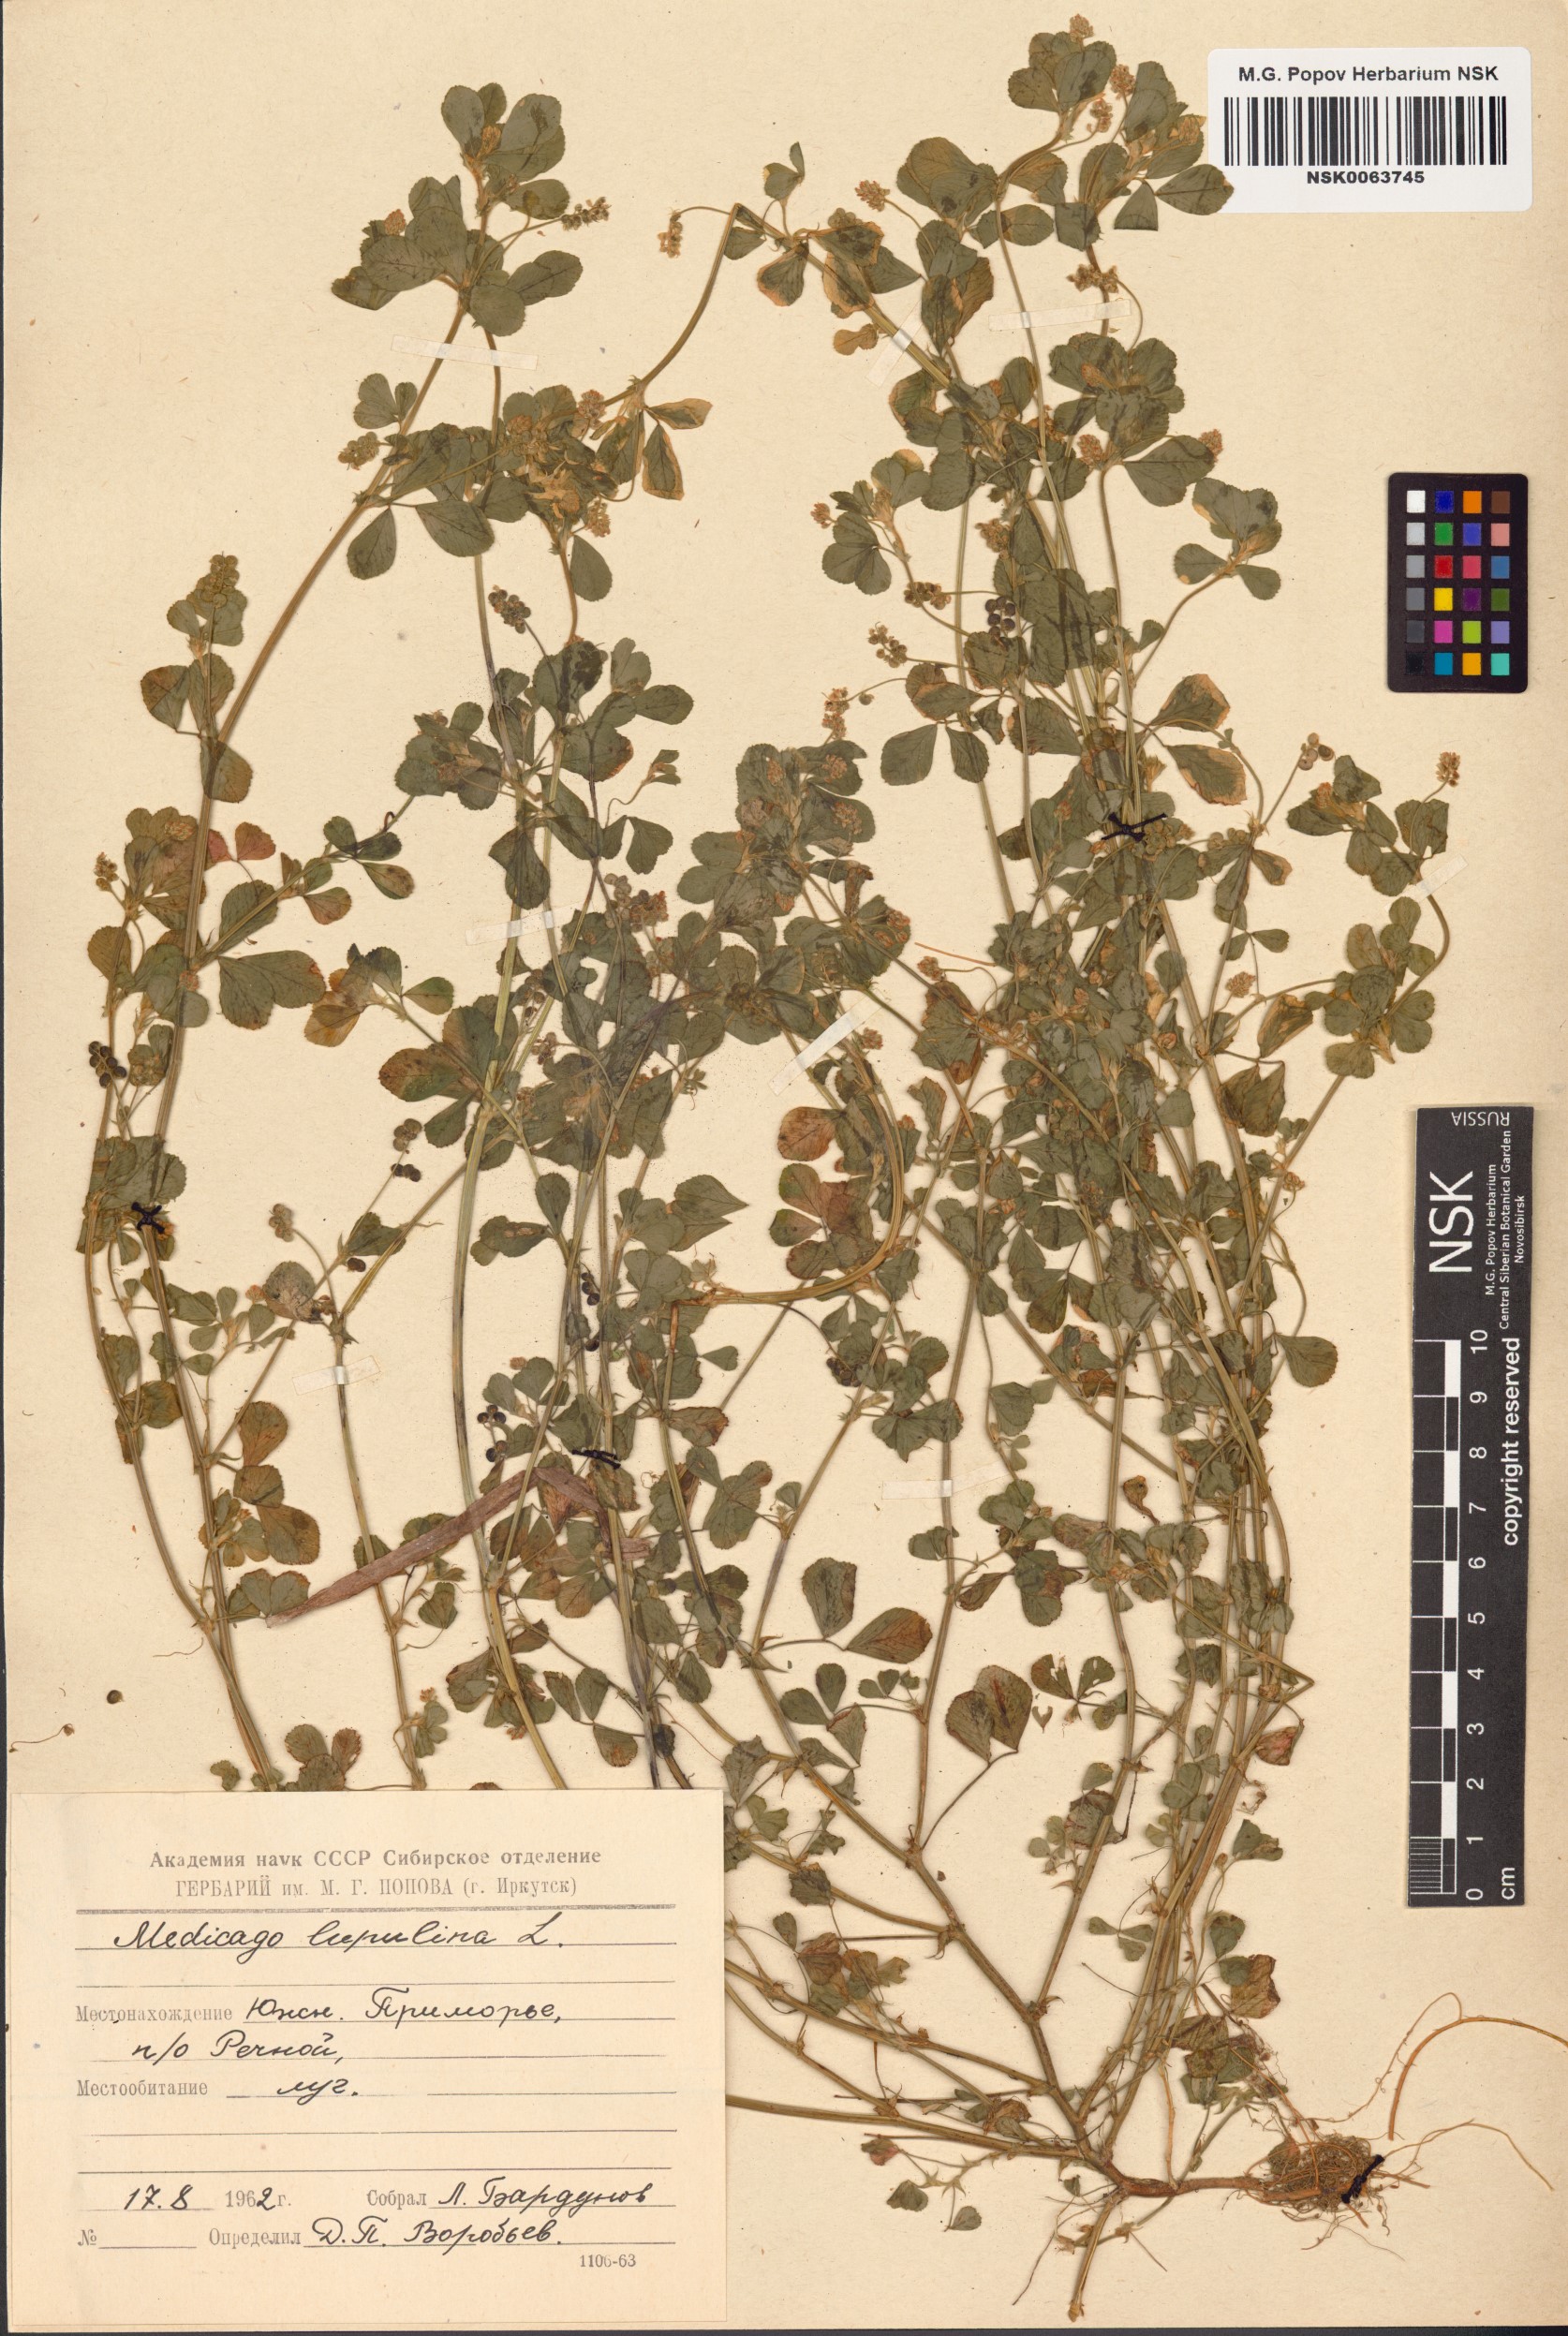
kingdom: Plantae
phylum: Tracheophyta
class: Magnoliopsida
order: Fabales
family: Fabaceae
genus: Medicago
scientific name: Medicago lupulina
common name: Black medick
